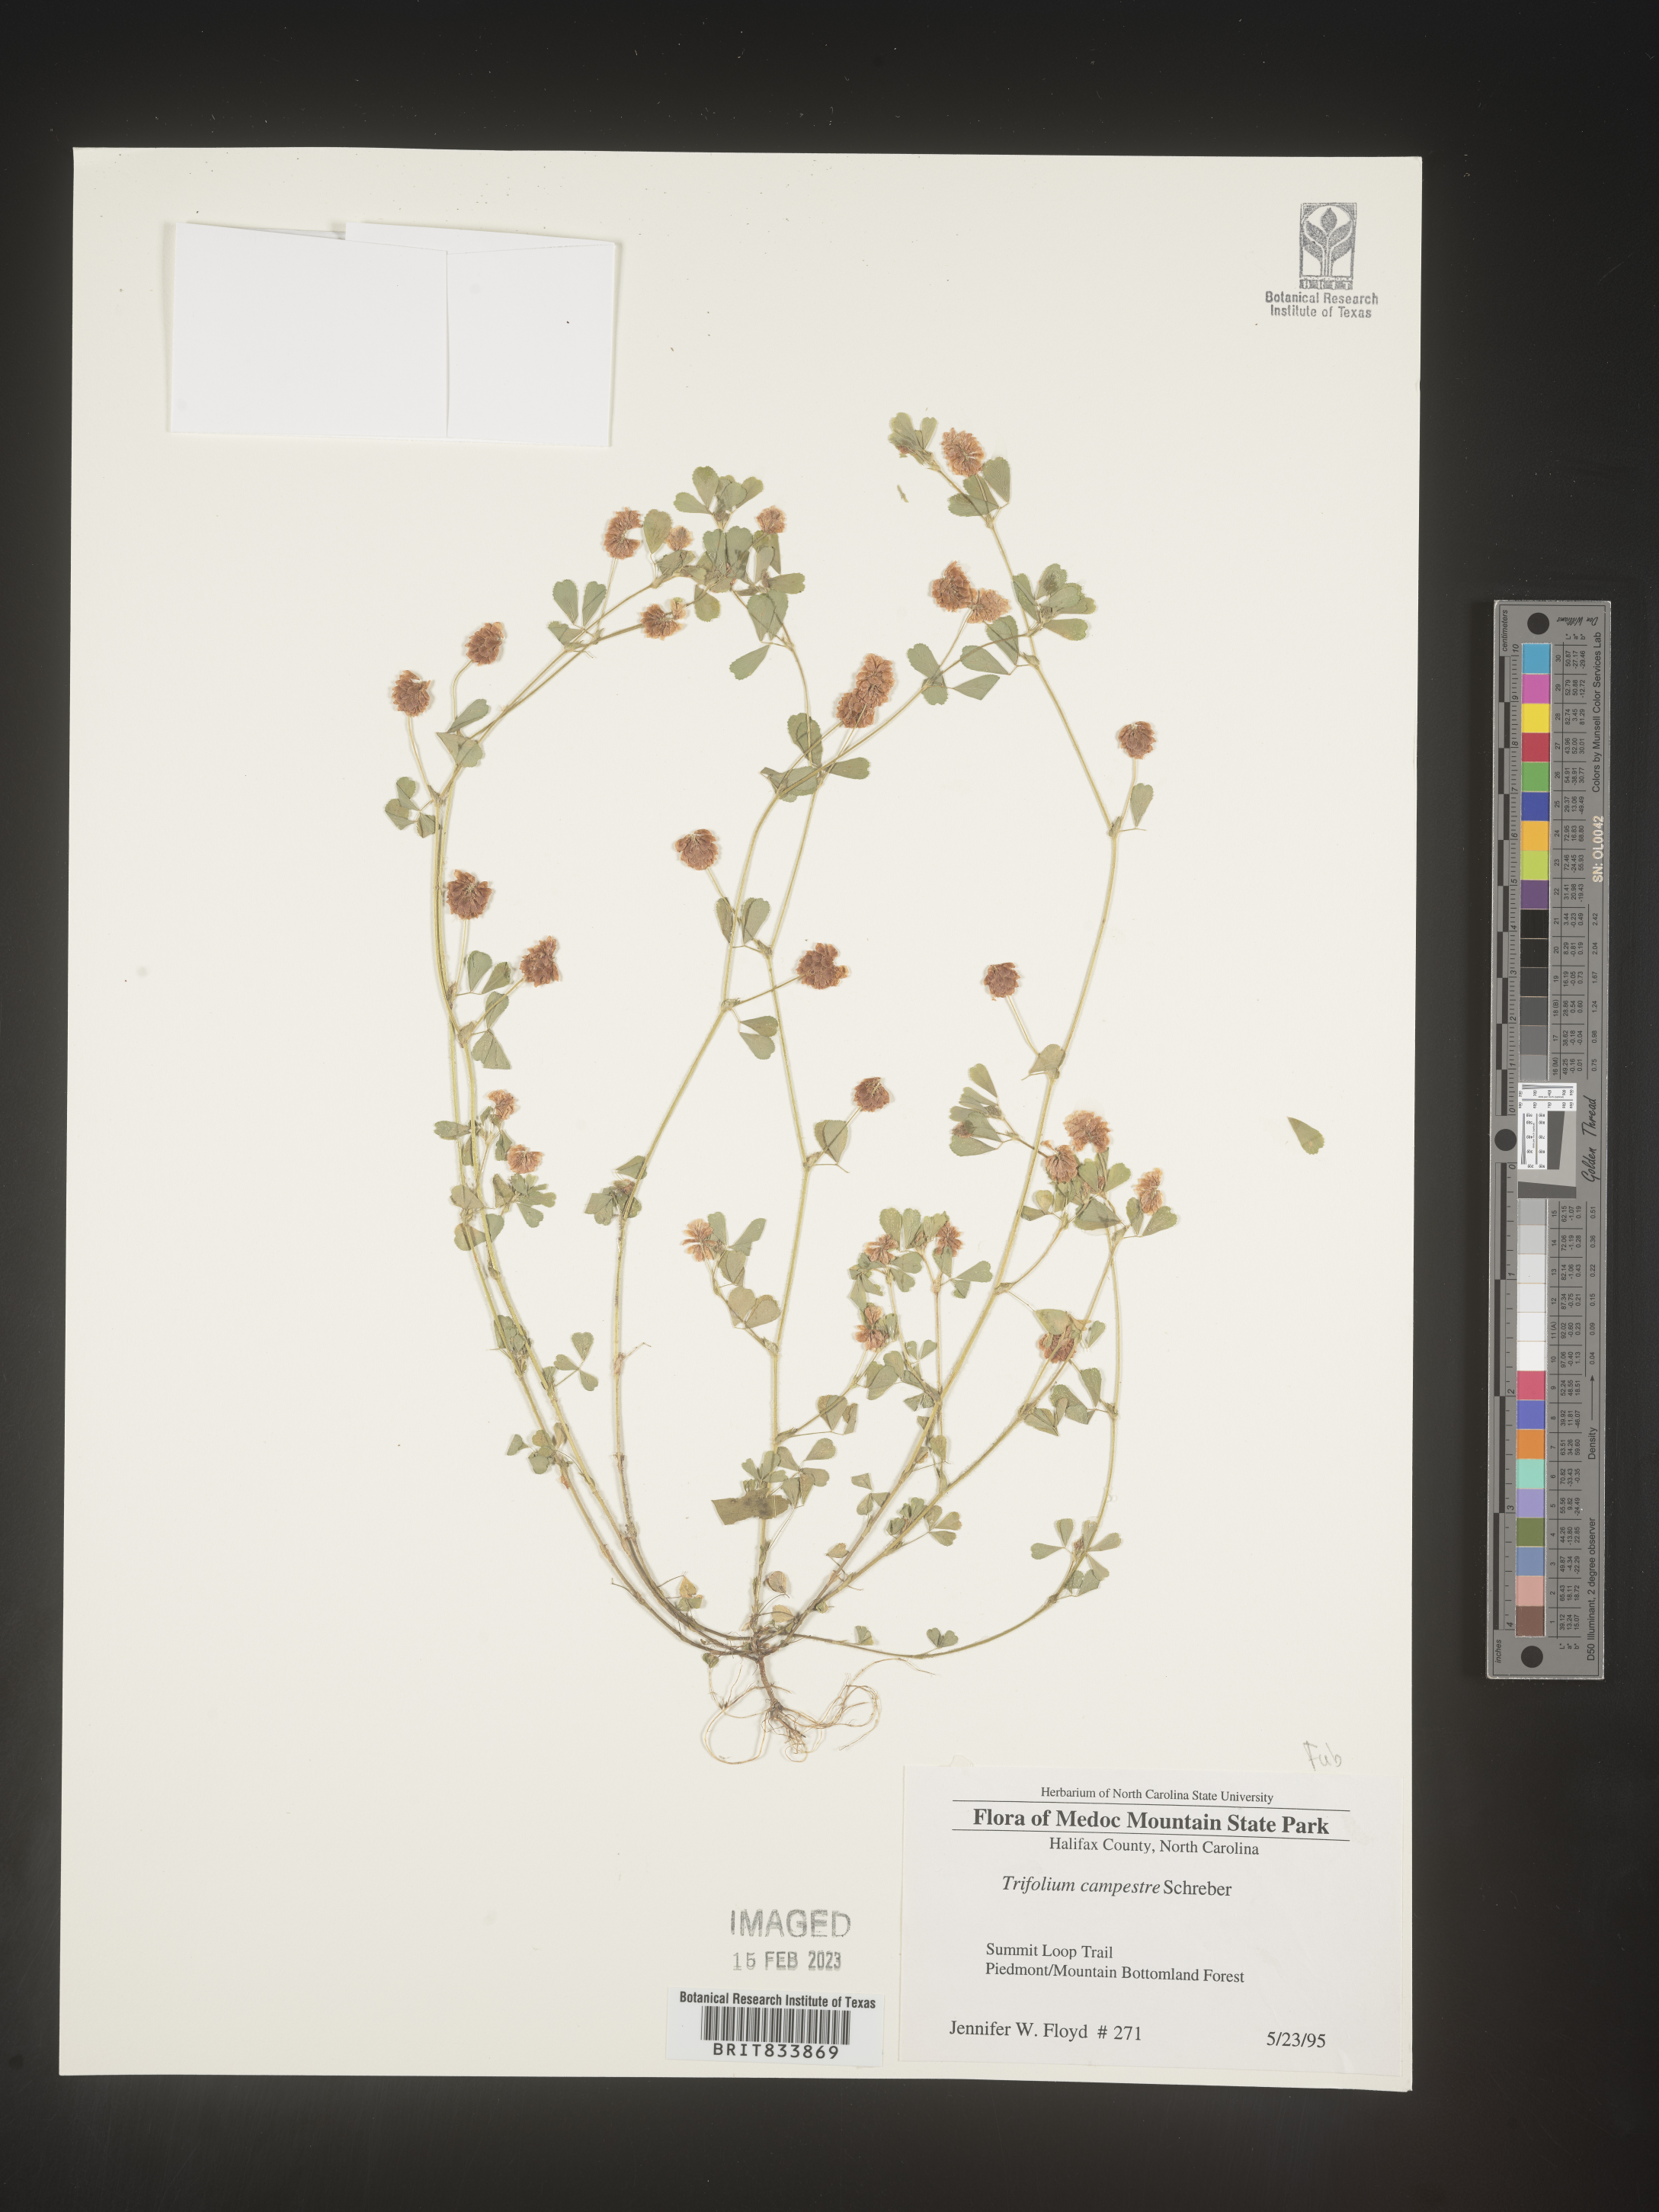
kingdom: Plantae
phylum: Tracheophyta
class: Magnoliopsida
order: Fabales
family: Fabaceae
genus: Trifolium
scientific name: Trifolium campestre
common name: Field clover
